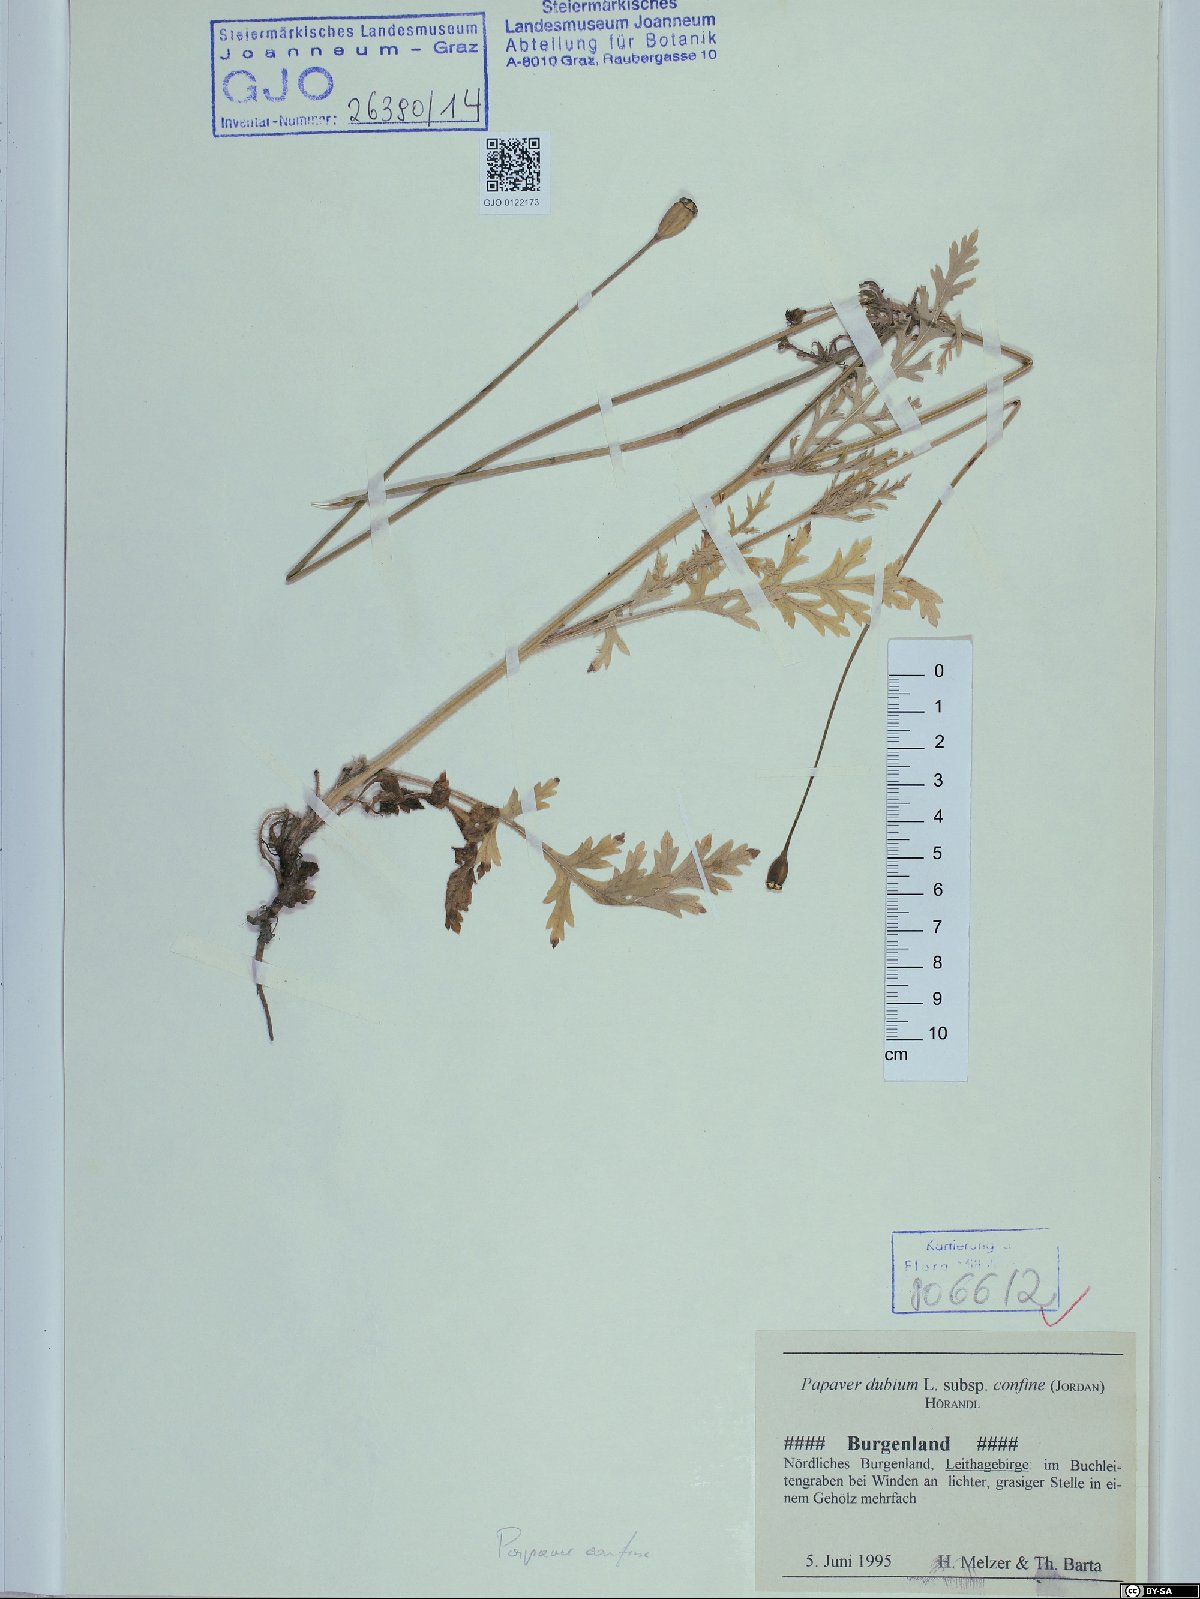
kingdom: Plantae
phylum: Tracheophyta
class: Magnoliopsida
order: Ranunculales
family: Papaveraceae
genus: Papaver
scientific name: Papaver confine
